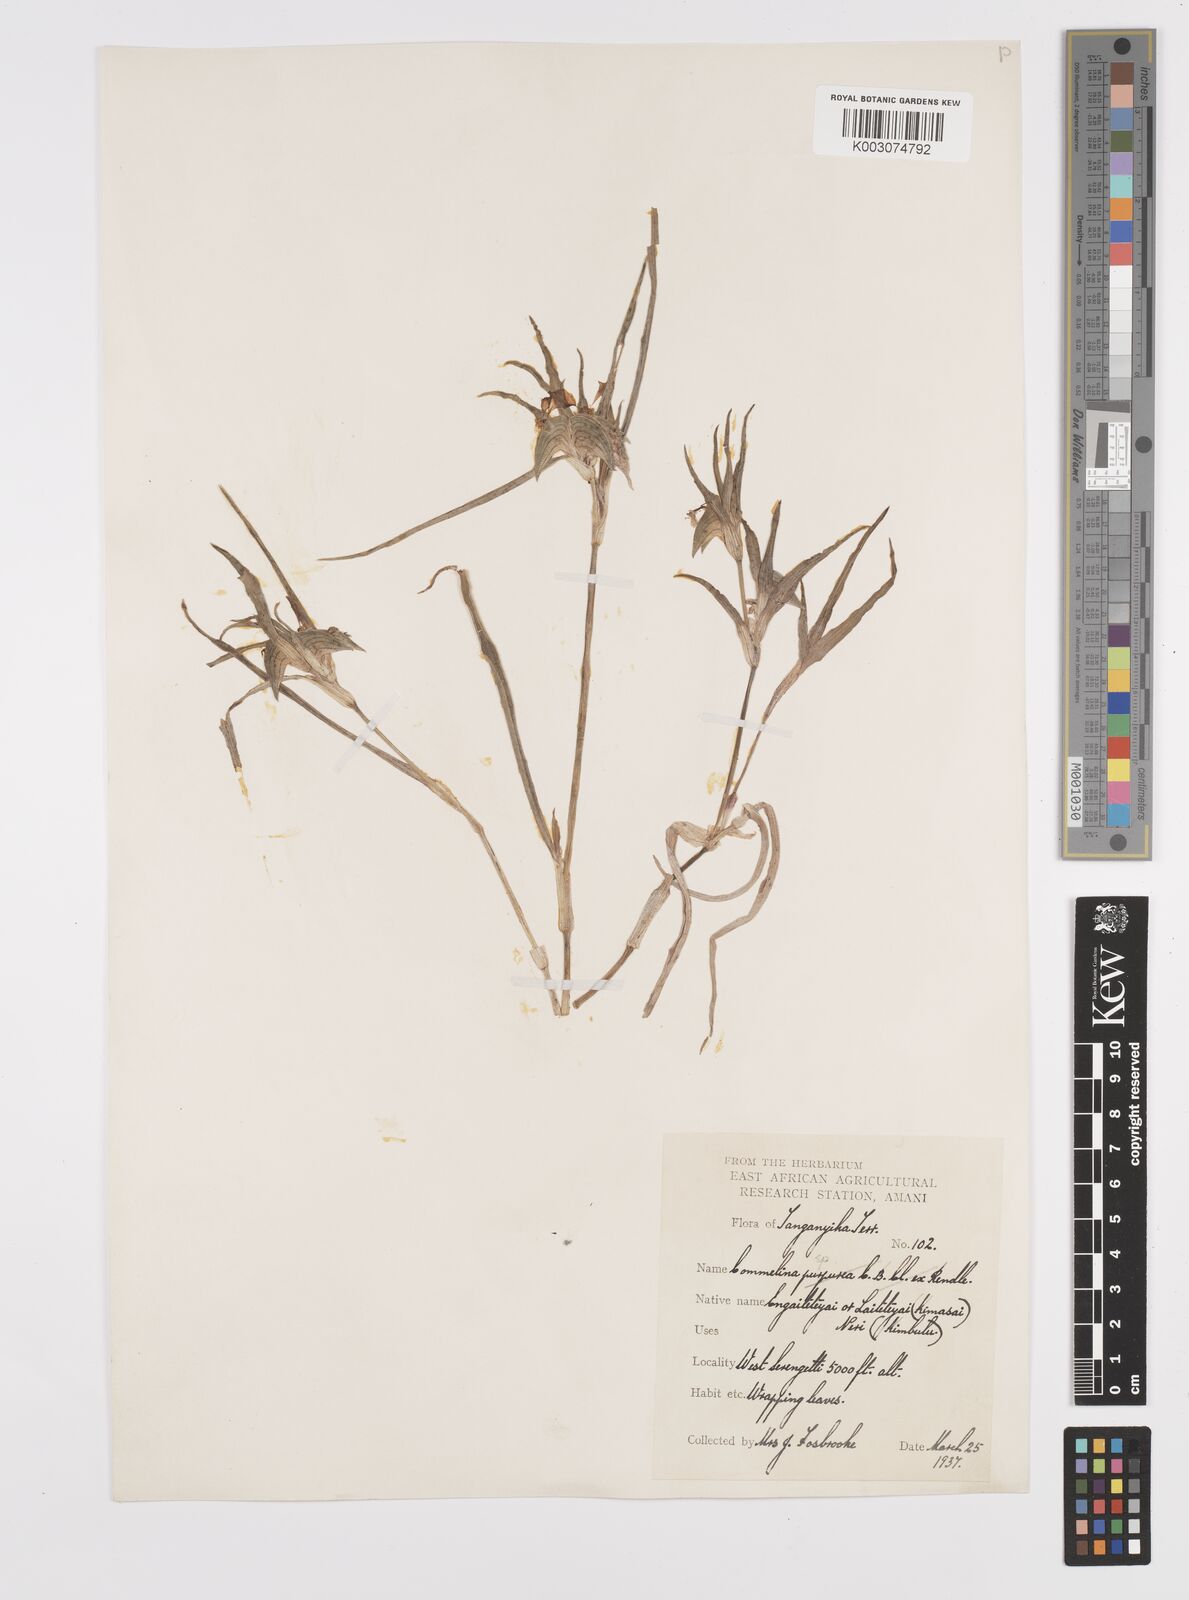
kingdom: Plantae
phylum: Tracheophyta
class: Liliopsida
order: Commelinales
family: Commelinaceae
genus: Commelina
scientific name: Commelina albescens
